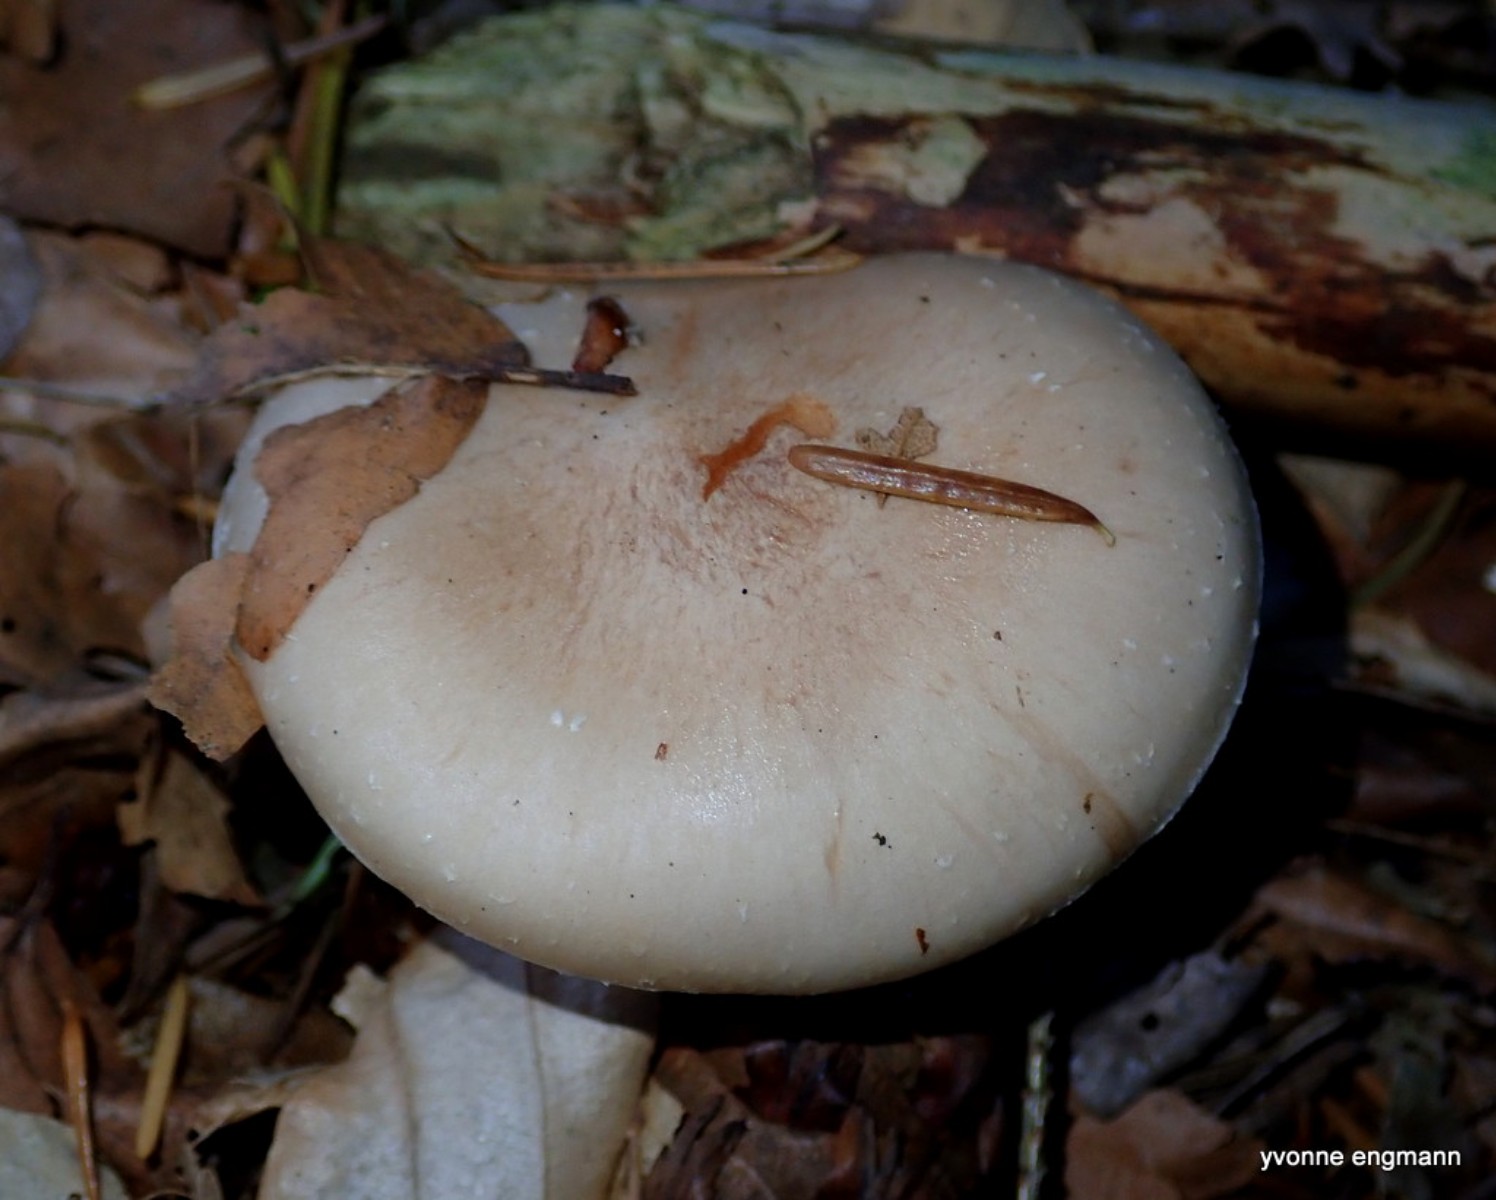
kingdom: Fungi
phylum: Basidiomycota
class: Agaricomycetes
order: Agaricales
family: Strophariaceae
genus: Pholiota
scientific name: Pholiota lenta
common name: løv-skælhat
